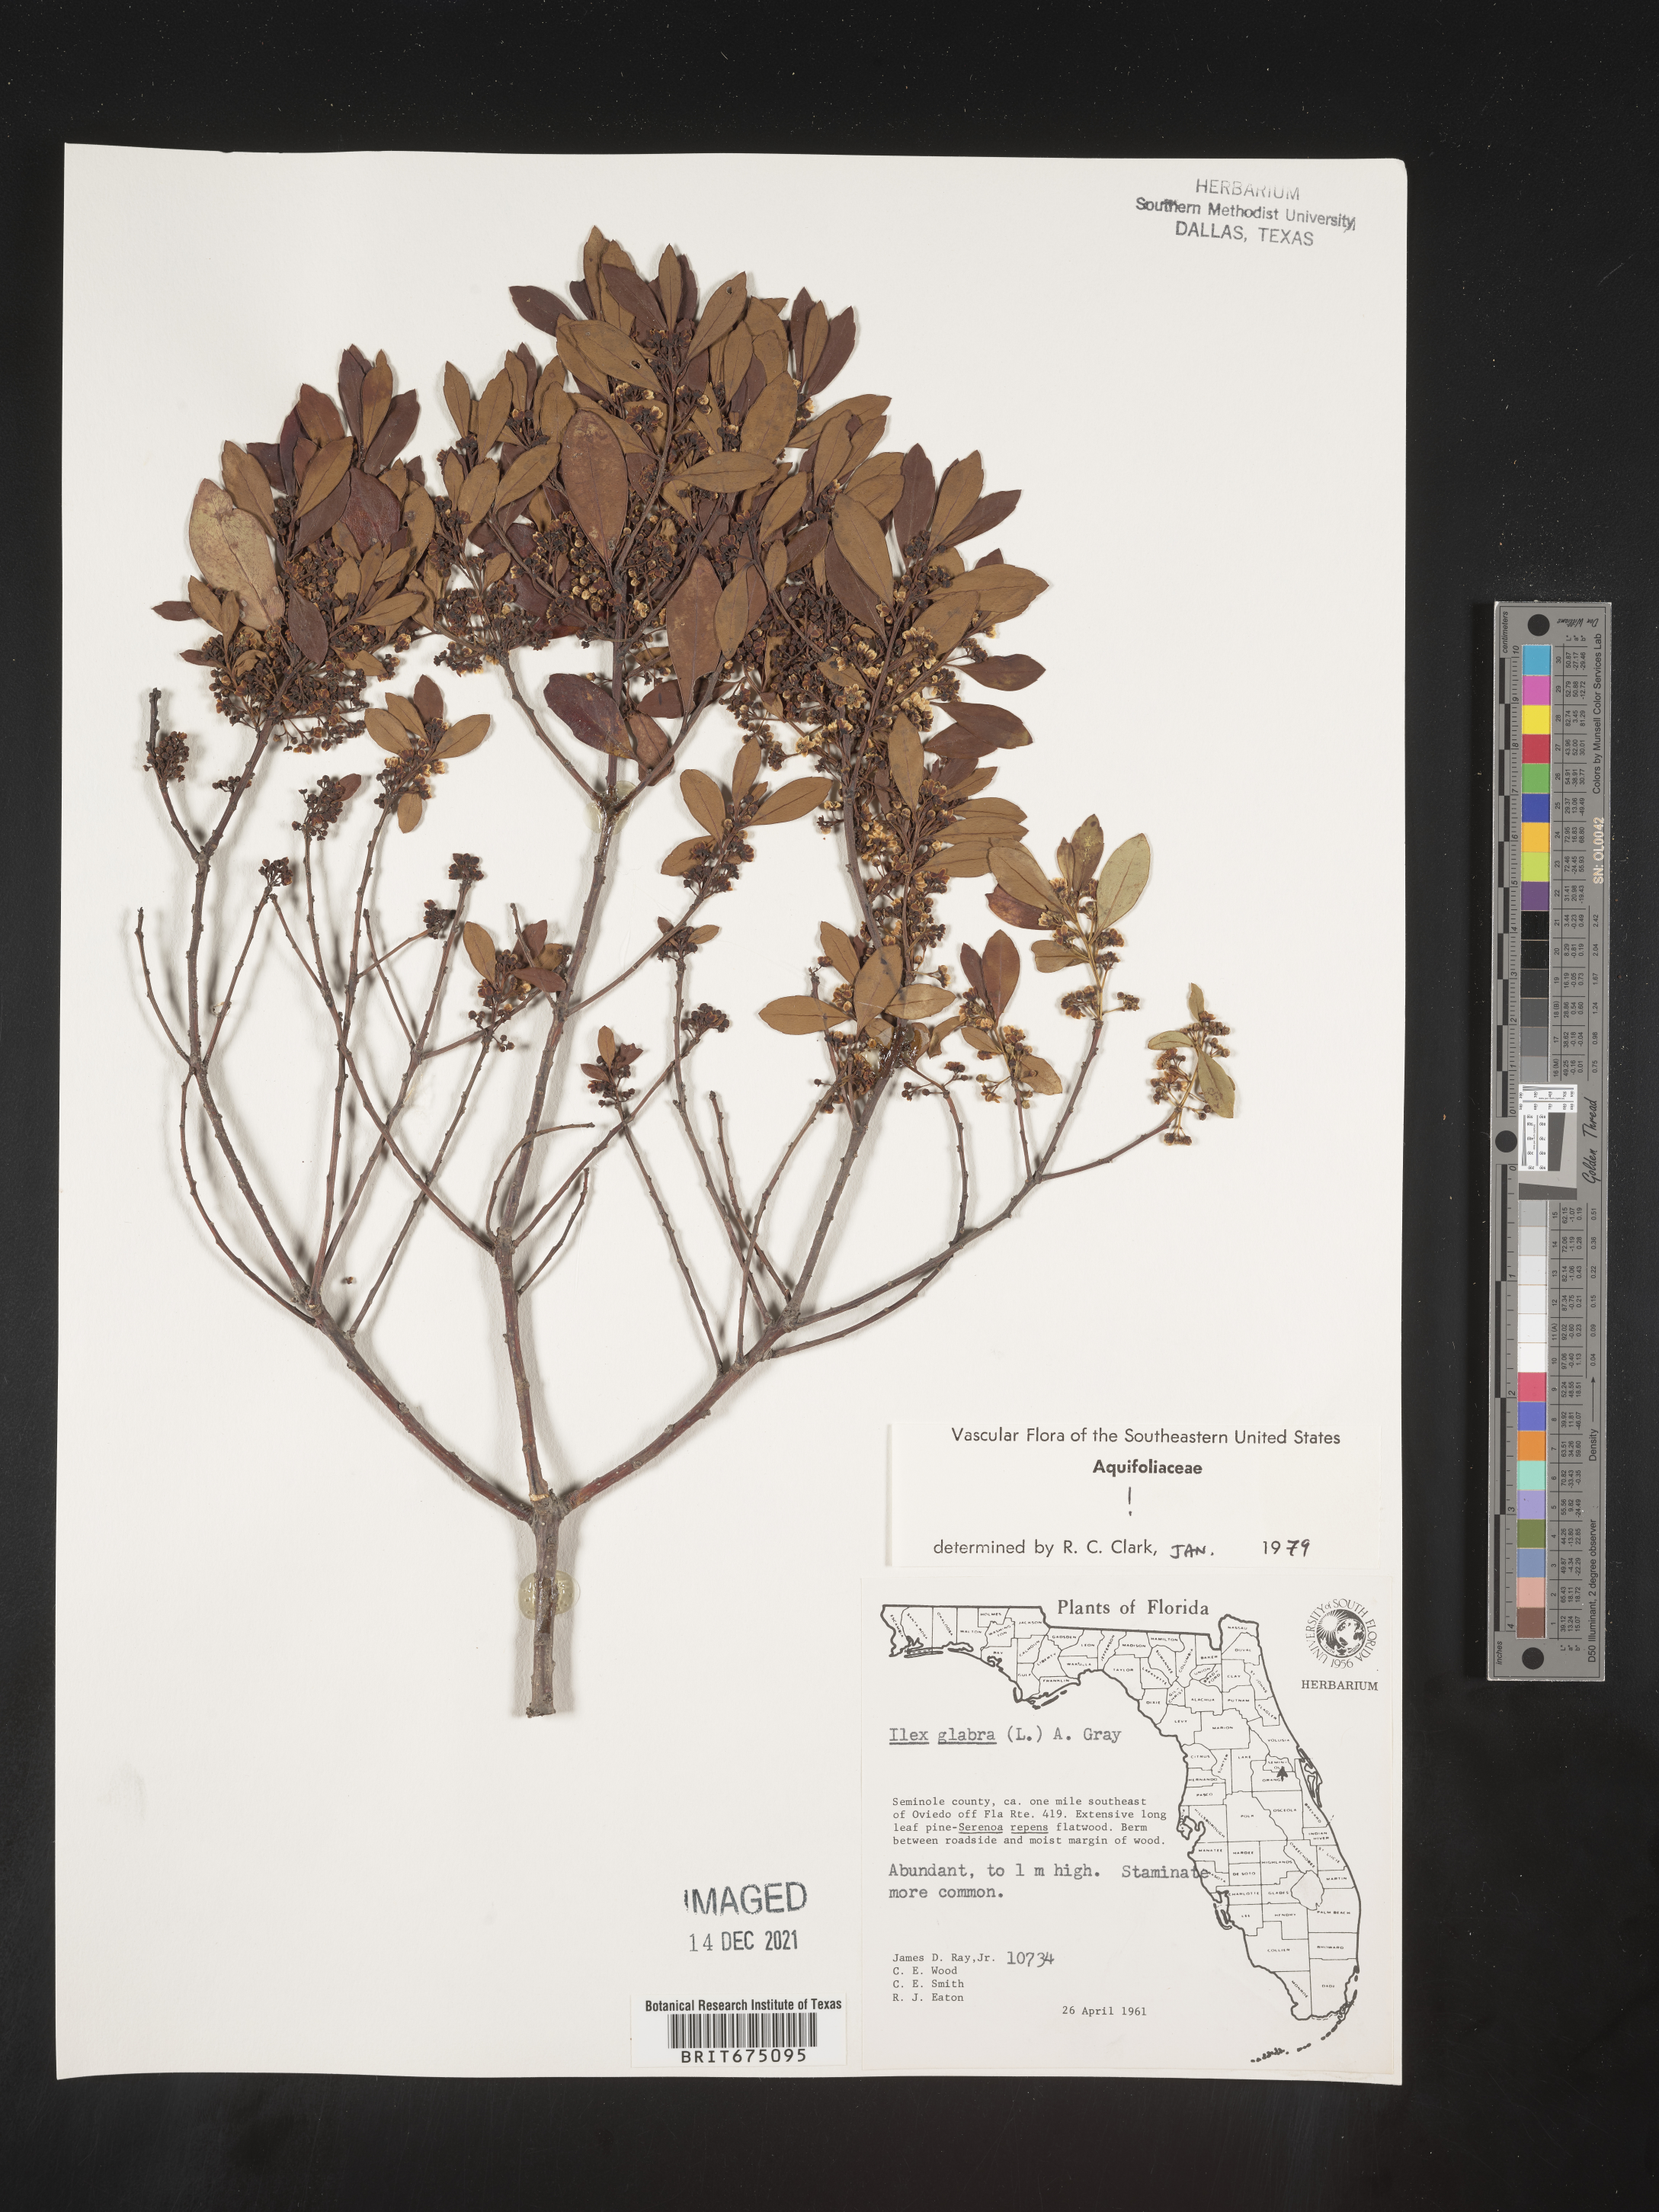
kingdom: Plantae
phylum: Tracheophyta
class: Magnoliopsida
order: Aquifoliales
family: Aquifoliaceae
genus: Ilex
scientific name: Ilex glabra
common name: Bitter gallberry
